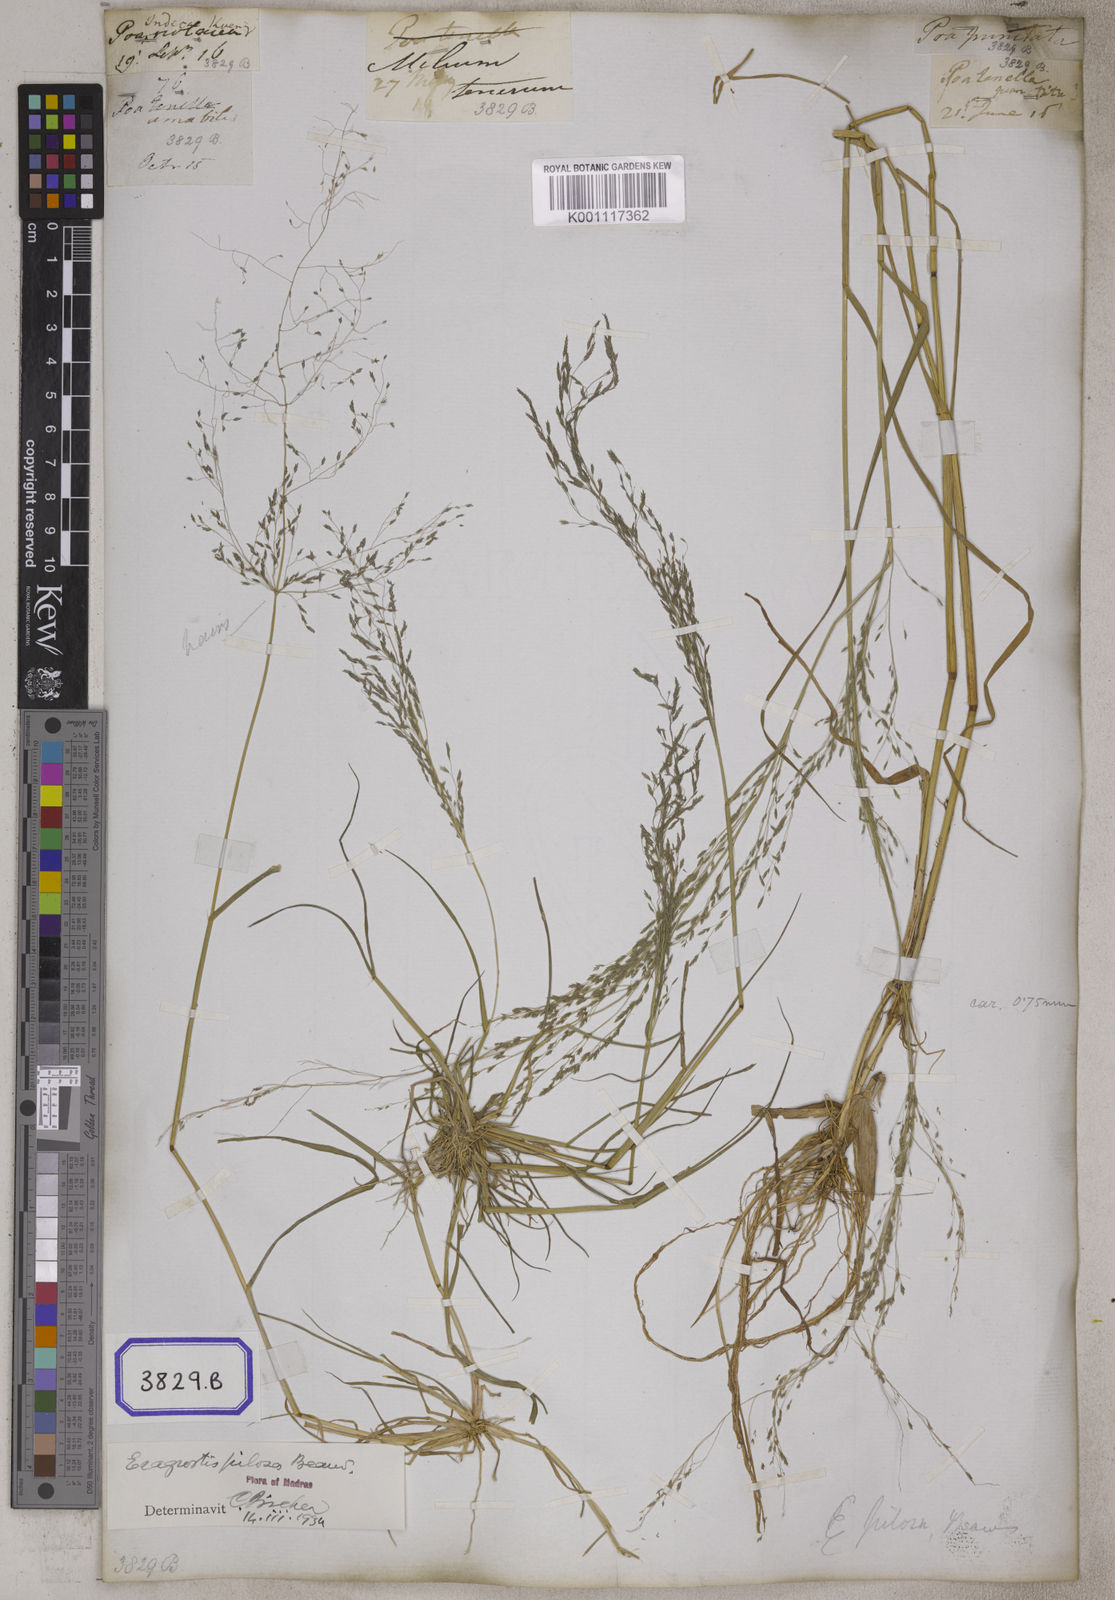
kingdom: Plantae
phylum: Tracheophyta
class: Liliopsida
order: Poales
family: Poaceae
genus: Eragrostis
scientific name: Eragrostis
